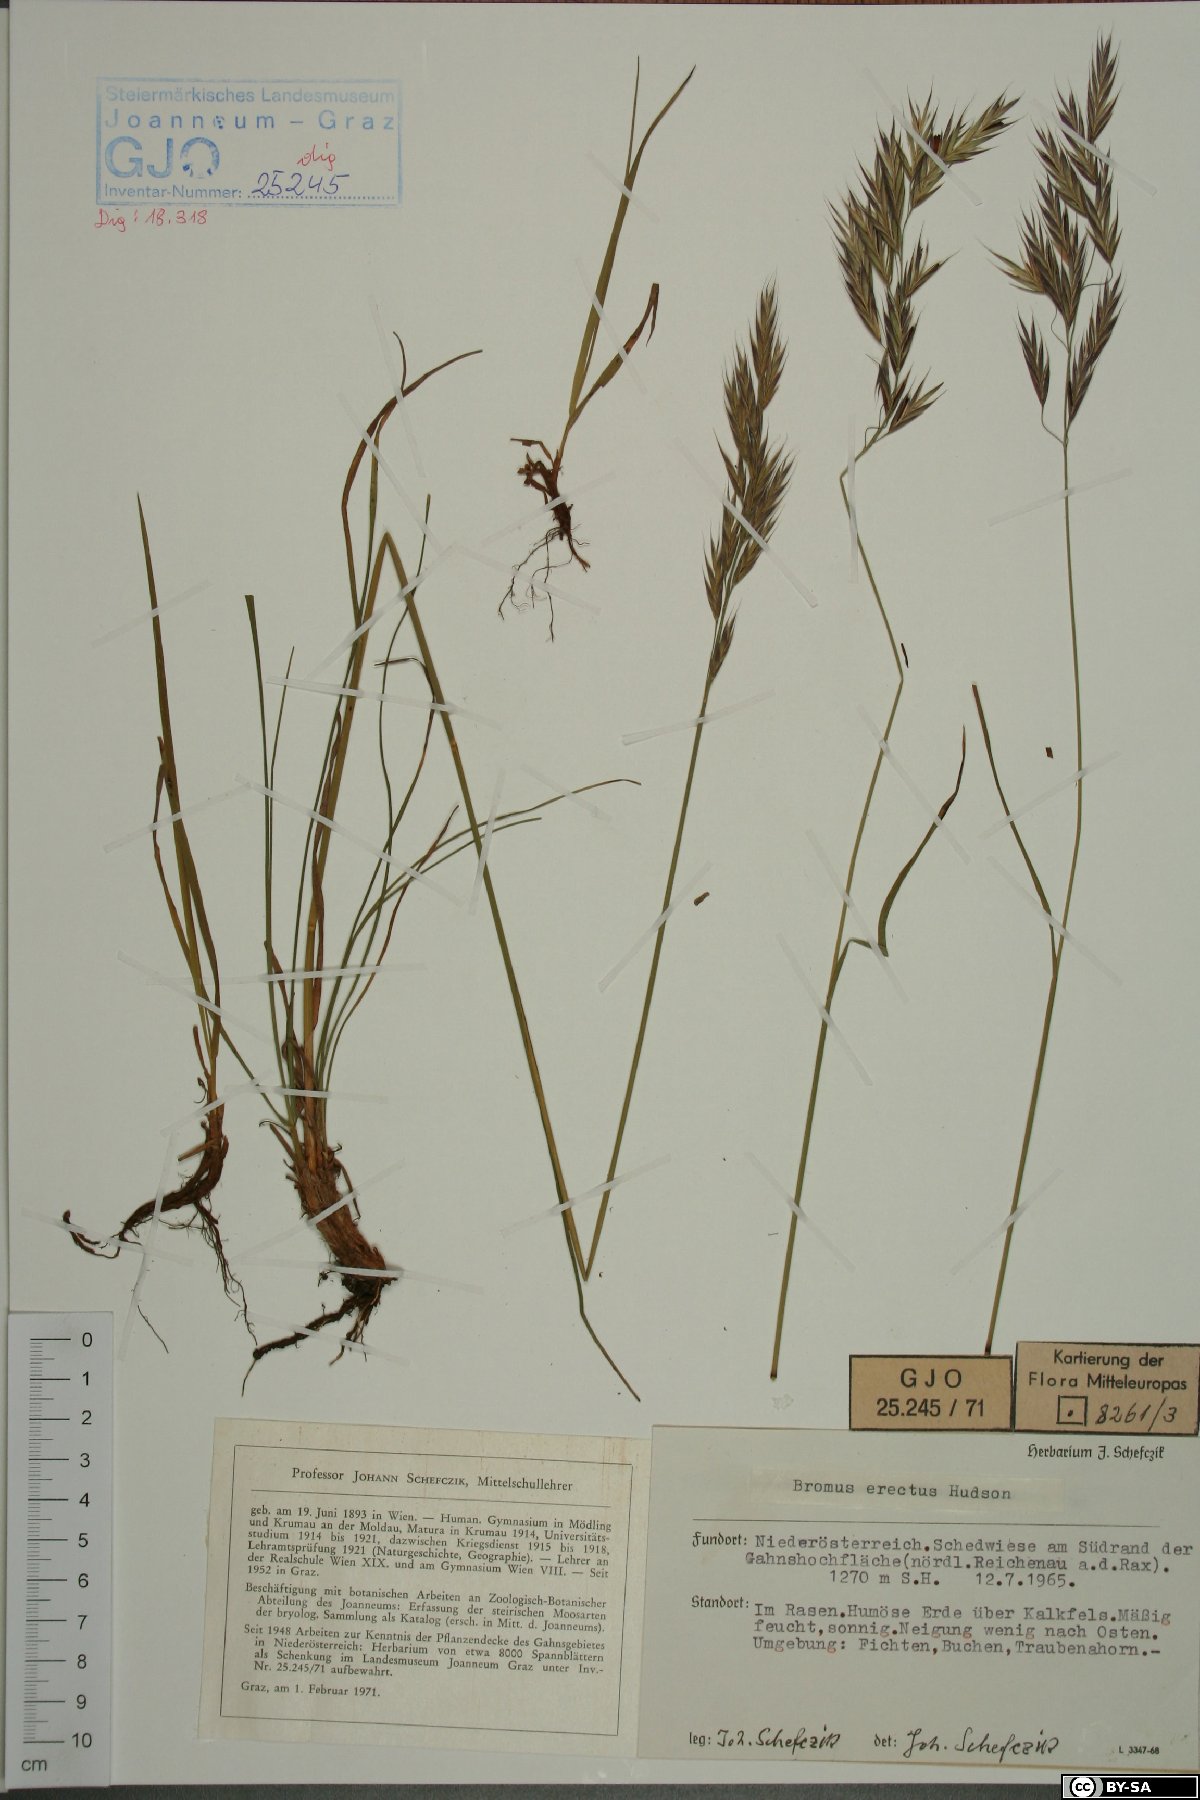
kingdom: Plantae
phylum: Tracheophyta
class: Liliopsida
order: Poales
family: Poaceae
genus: Bromus
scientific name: Bromus erectus
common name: Erect brome
